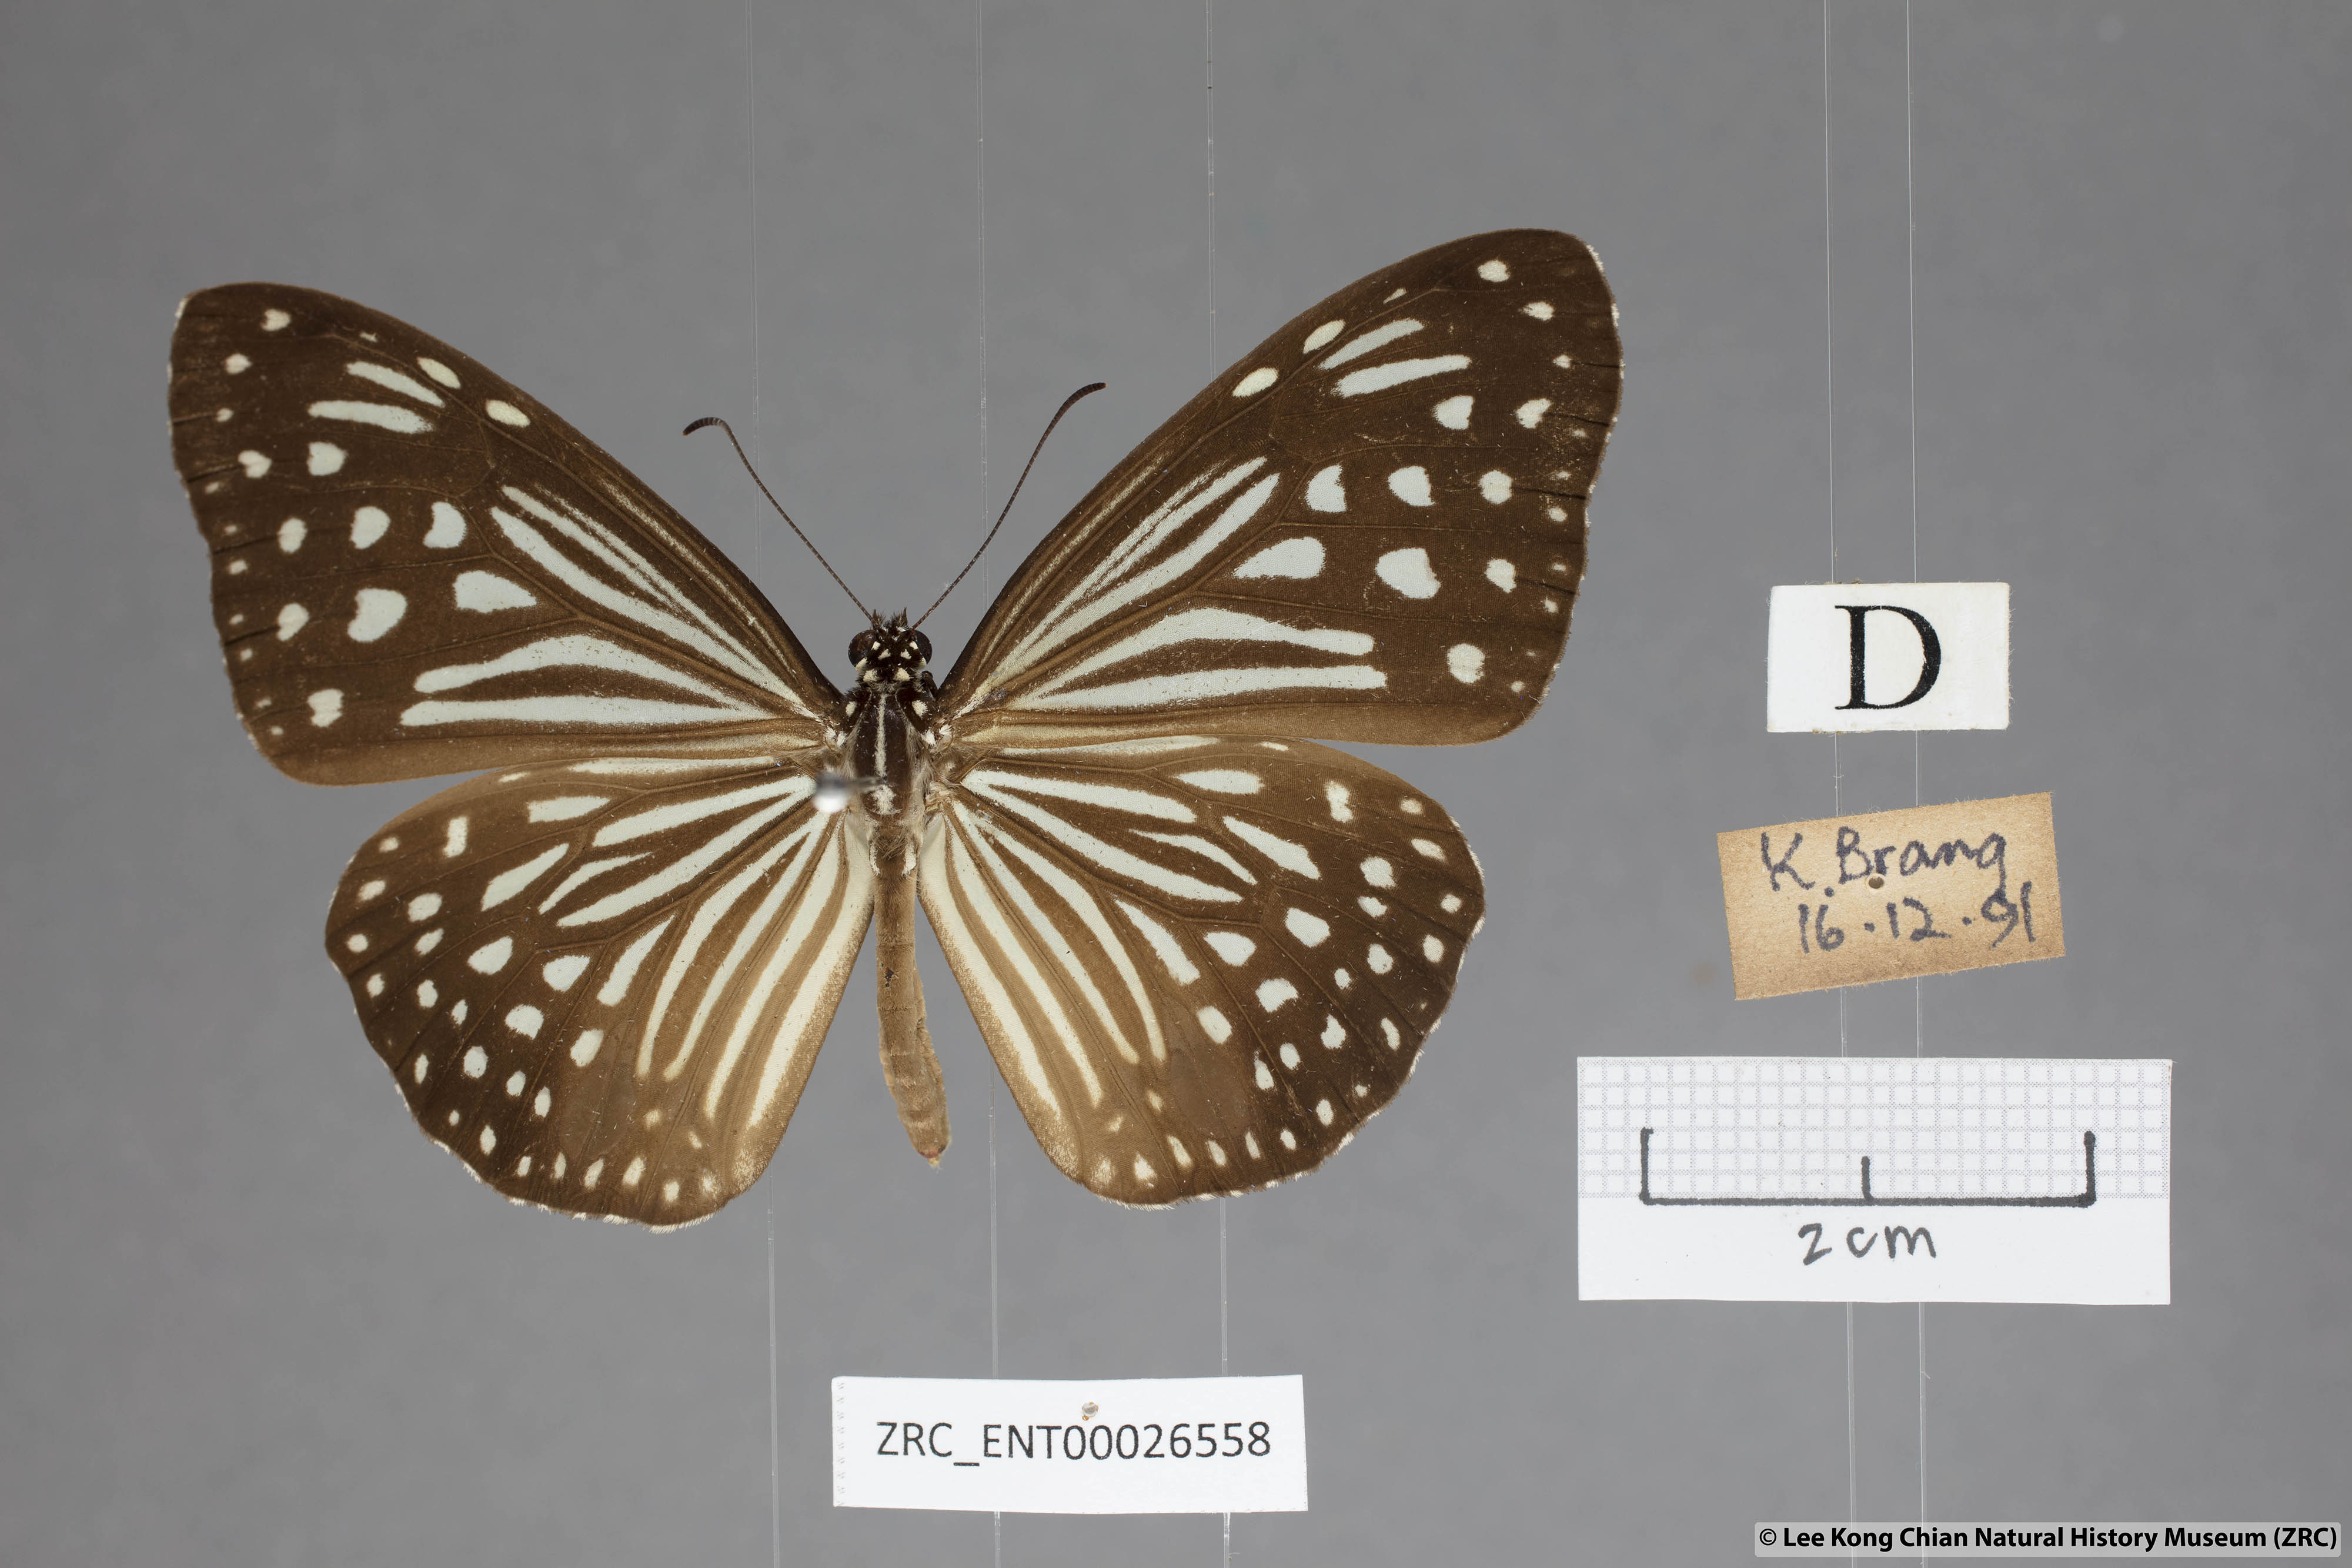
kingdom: Animalia
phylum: Arthropoda
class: Insecta
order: Lepidoptera
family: Nymphalidae
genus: Parantica
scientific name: Parantica agleoides
